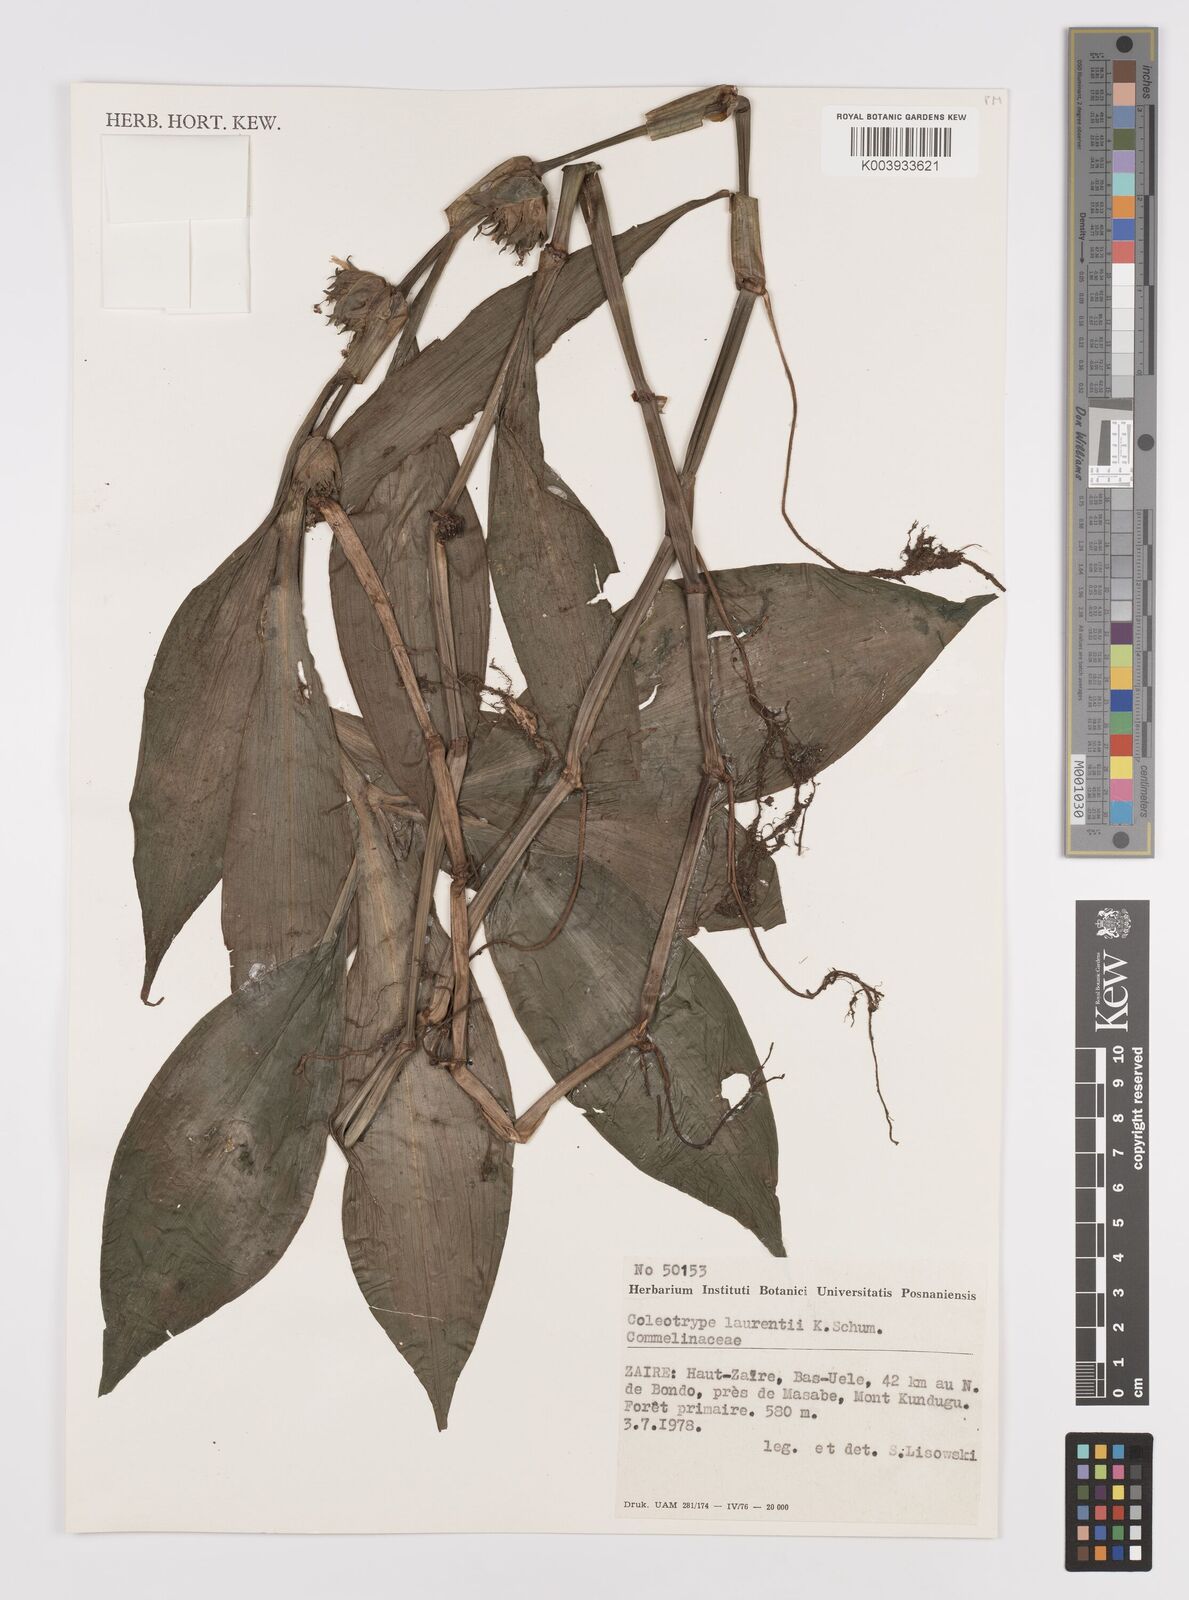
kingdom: Plantae
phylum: Tracheophyta
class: Liliopsida
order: Commelinales
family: Commelinaceae
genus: Coleotrype
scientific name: Coleotrype laurentii
